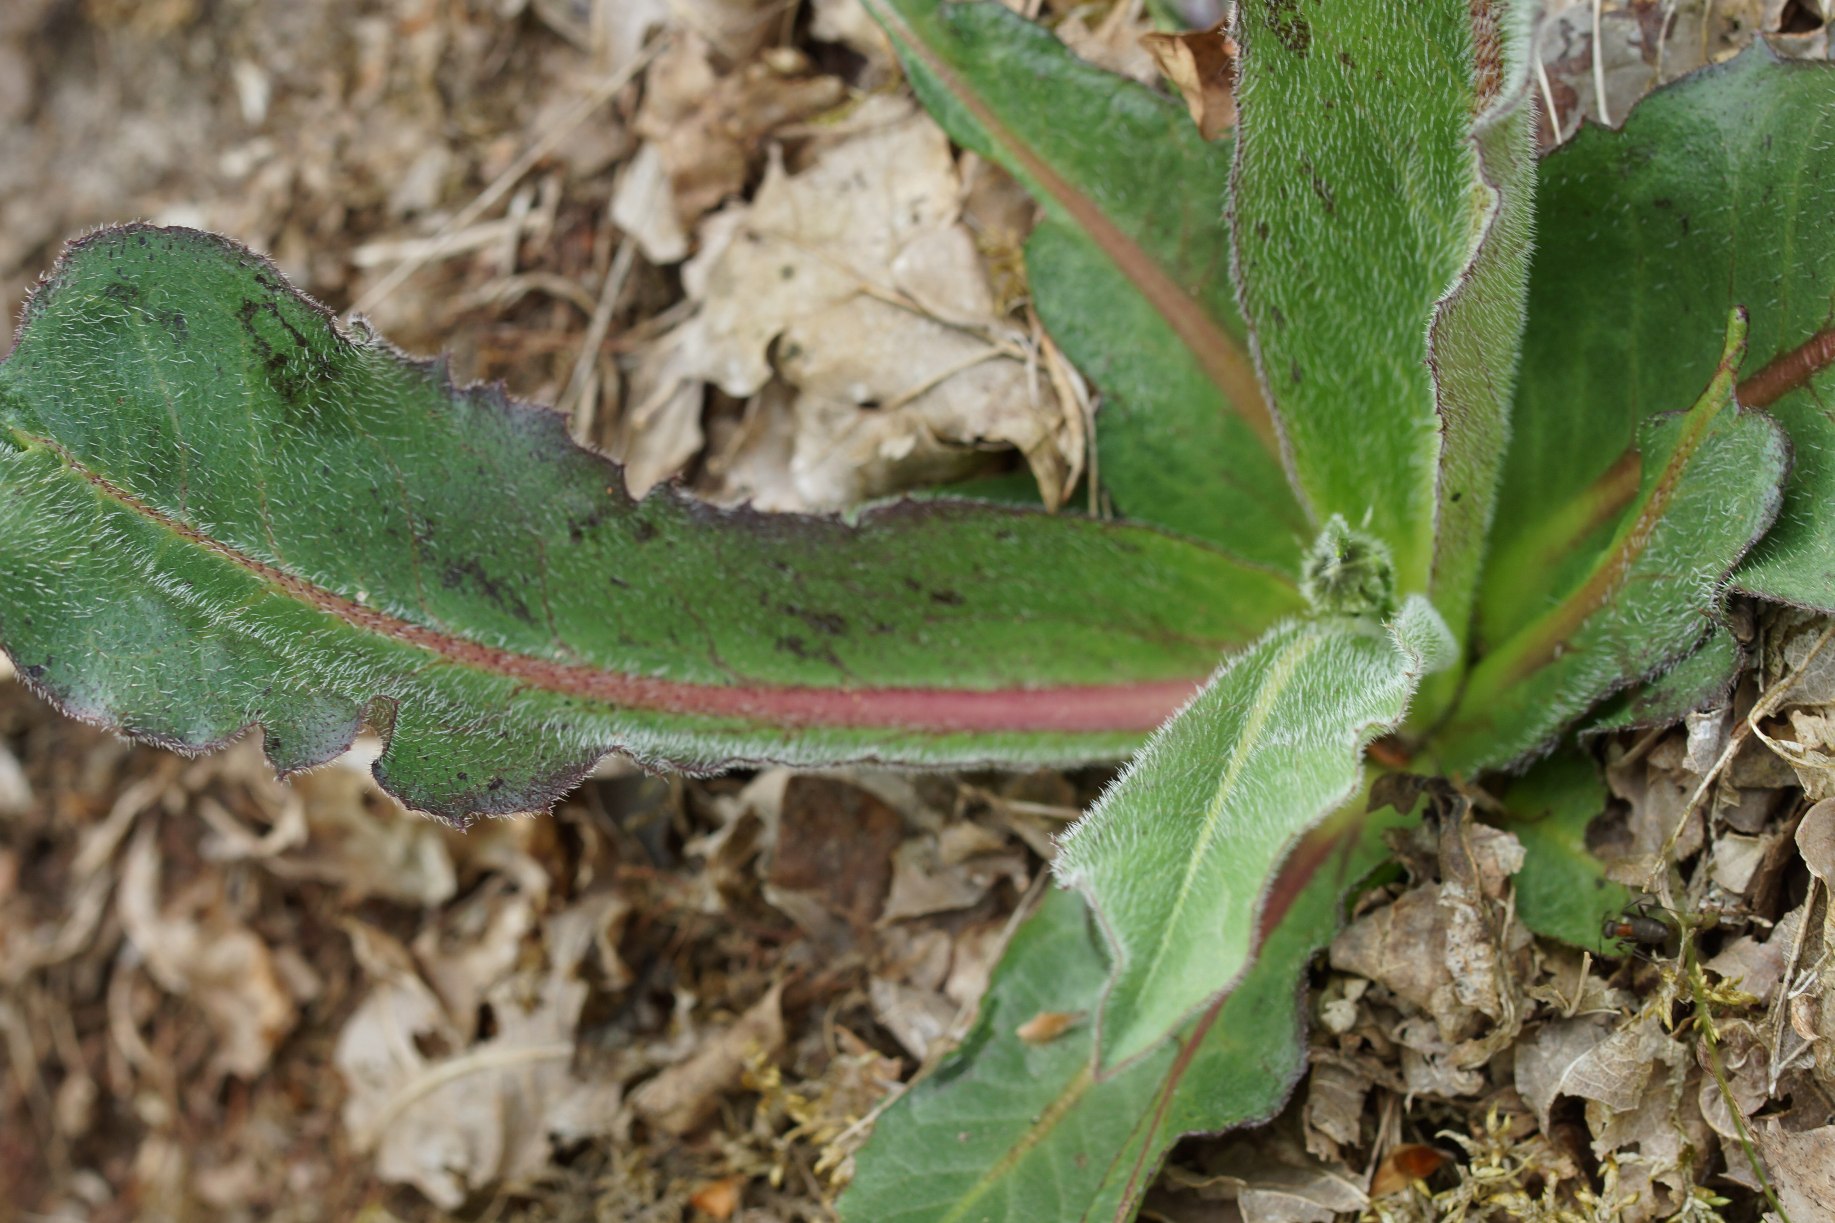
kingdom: Plantae
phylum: Tracheophyta
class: Magnoliopsida
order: Asterales
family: Asteraceae
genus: Trommsdorffia
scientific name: Trommsdorffia maculata
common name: Plettet kongepen
